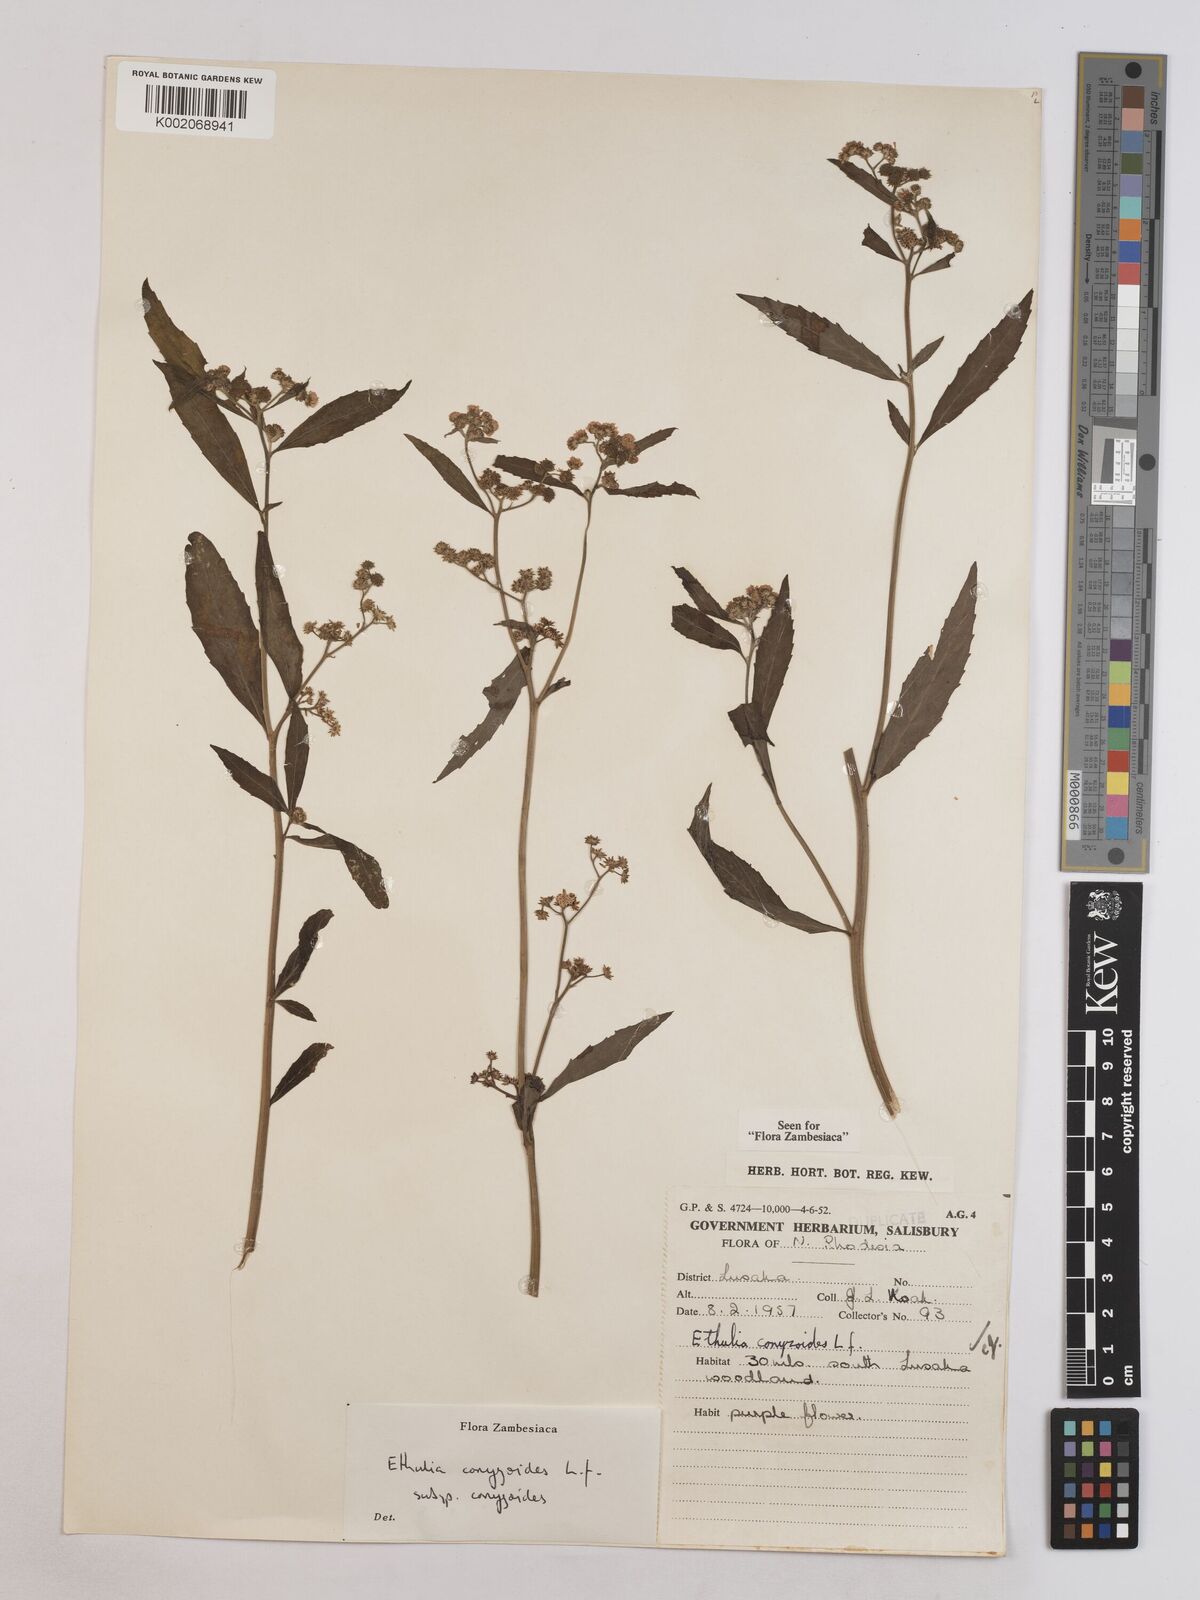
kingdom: Plantae
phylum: Tracheophyta
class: Magnoliopsida
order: Asterales
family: Asteraceae
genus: Ethulia
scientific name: Ethulia conyzoides
